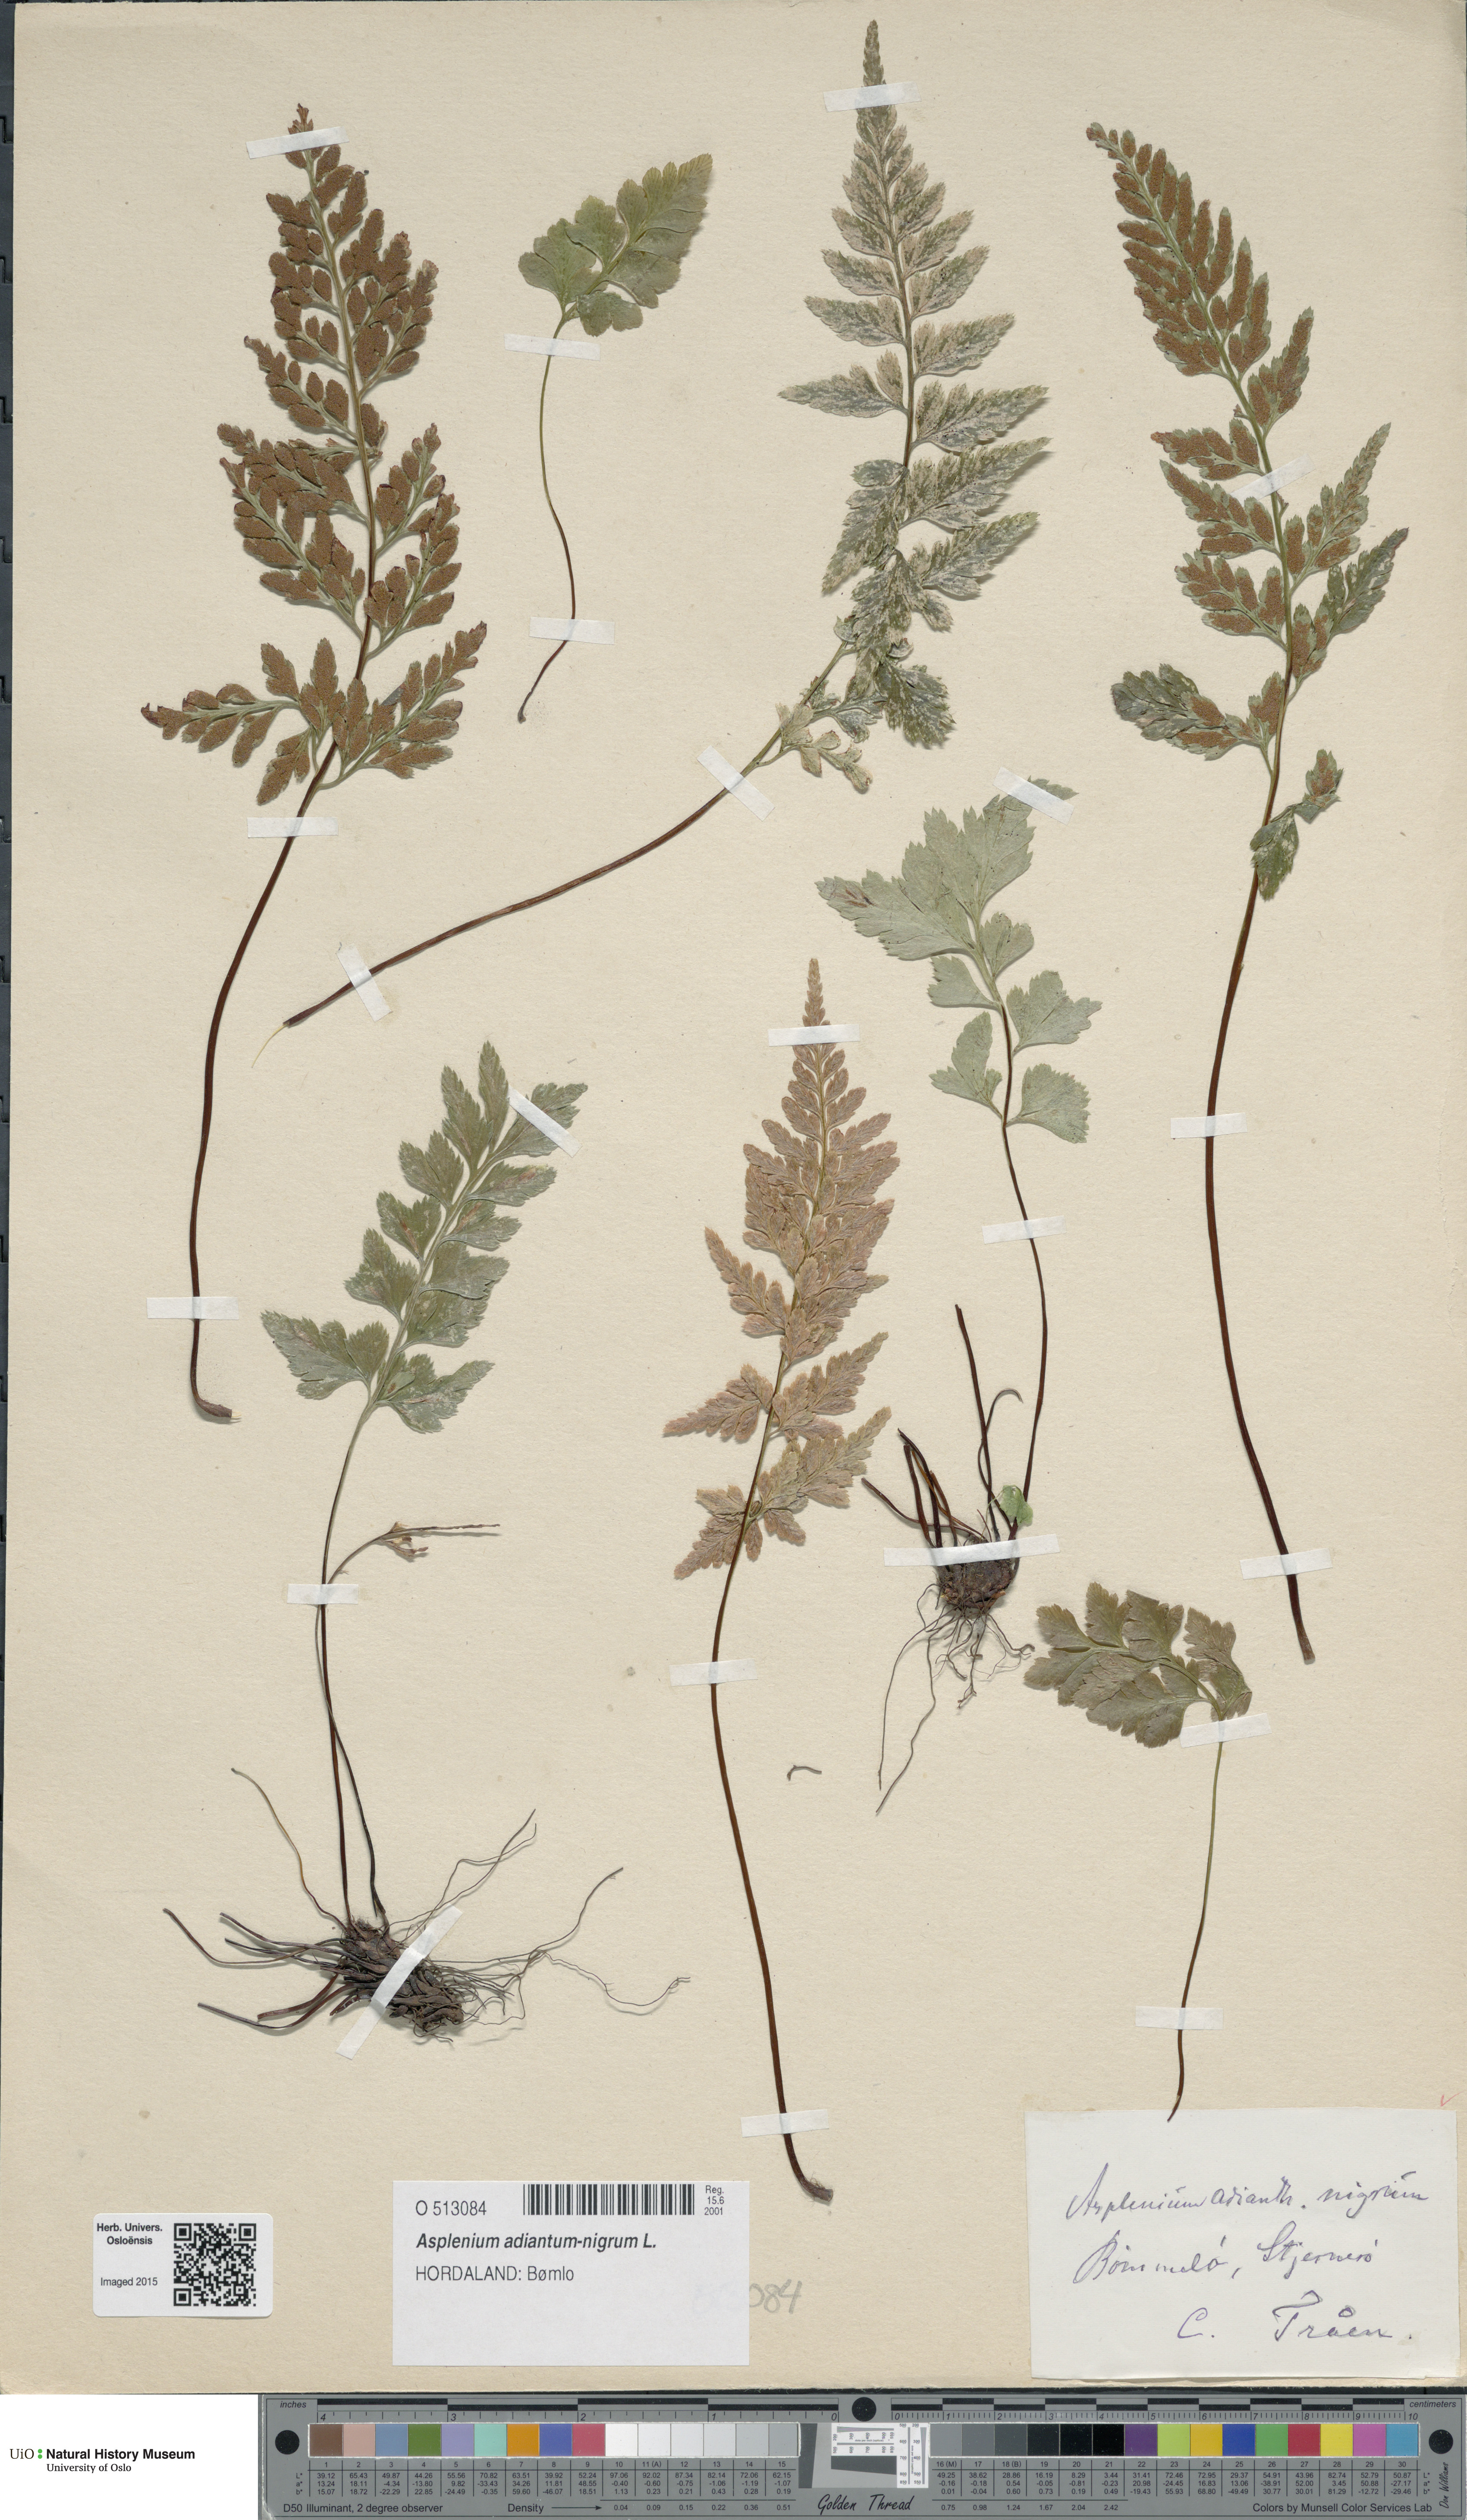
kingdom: Plantae
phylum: Tracheophyta
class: Polypodiopsida
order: Polypodiales
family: Aspleniaceae
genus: Asplenium
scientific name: Asplenium adiantum-nigrum
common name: Black spleenwort
